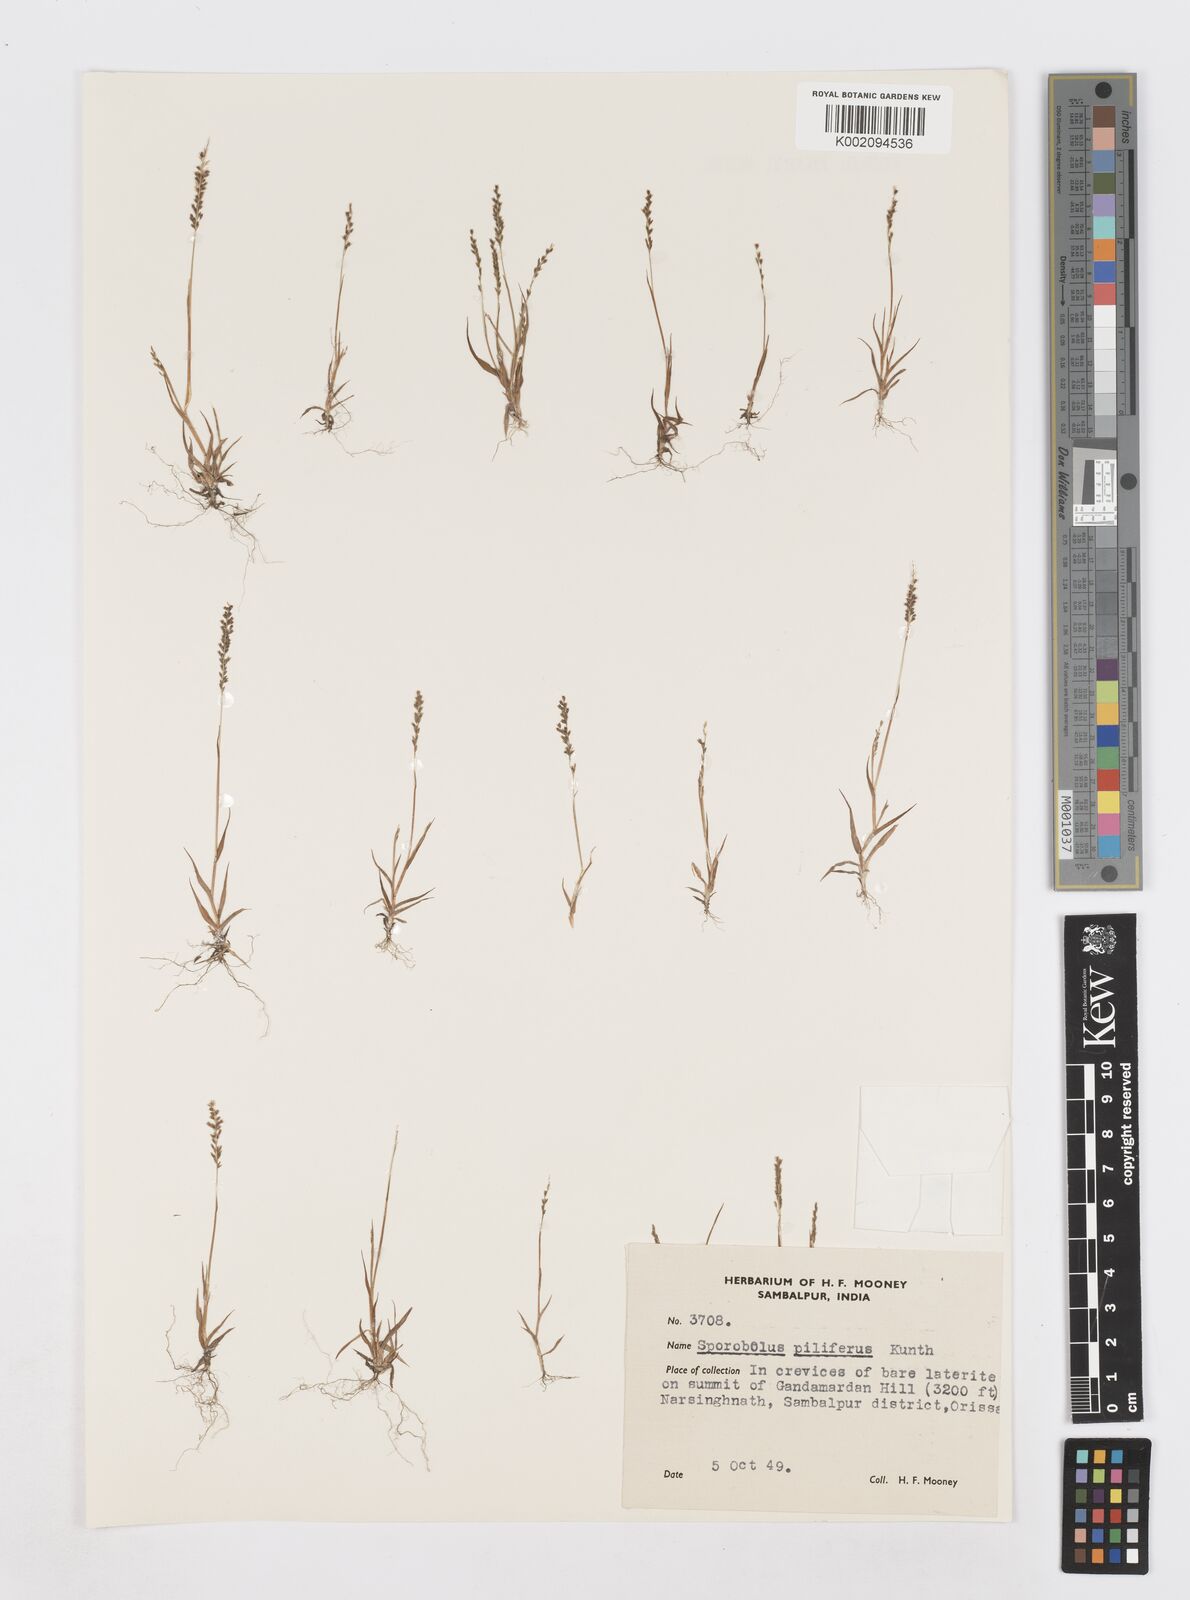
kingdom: Plantae
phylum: Tracheophyta
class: Liliopsida
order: Poales
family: Poaceae
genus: Sporobolus
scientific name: Sporobolus pilifer
